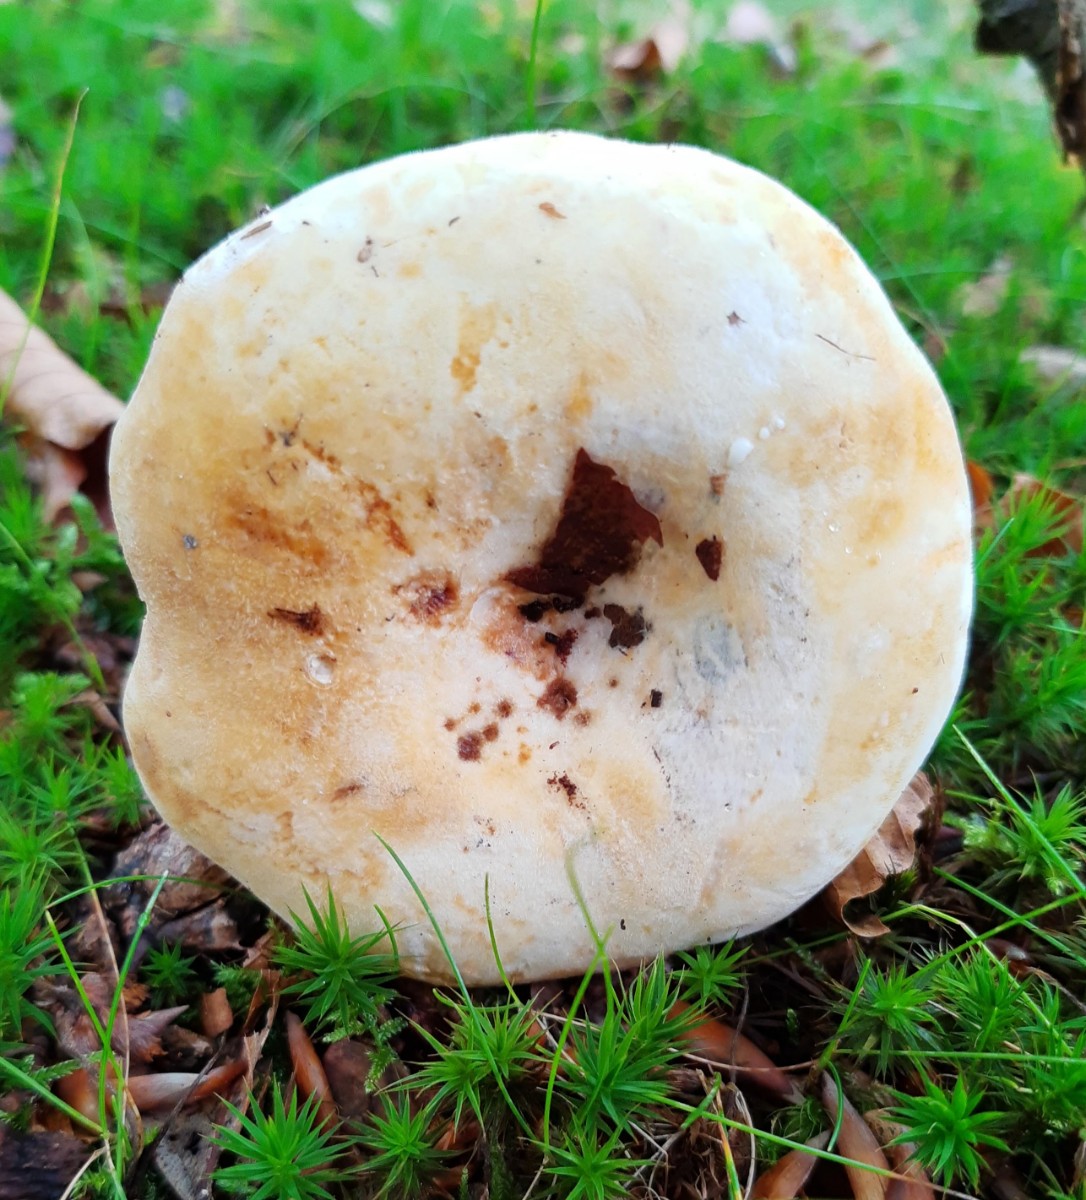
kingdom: Fungi
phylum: Basidiomycota
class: Agaricomycetes
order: Russulales
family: Russulaceae
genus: Lactifluus
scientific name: Lactifluus vellereus
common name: hvidfiltet mælkehat
